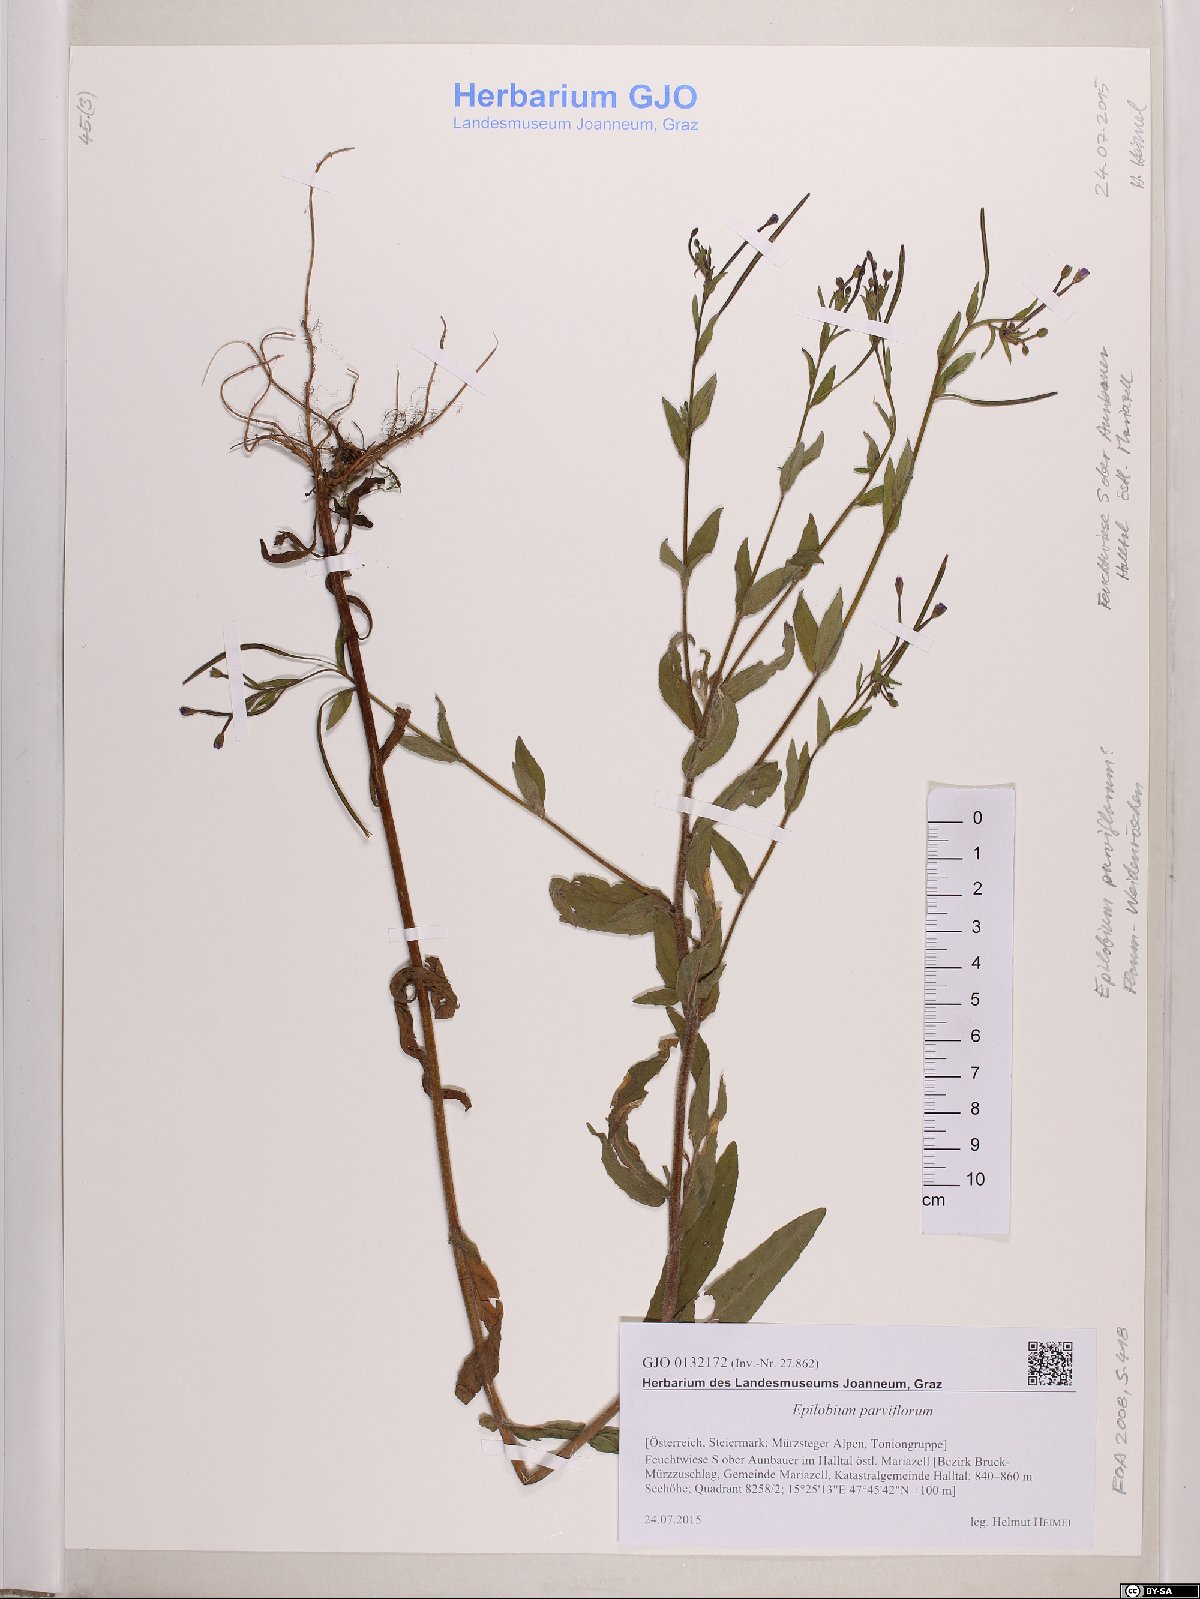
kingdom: Plantae
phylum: Tracheophyta
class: Magnoliopsida
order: Myrtales
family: Onagraceae
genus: Epilobium
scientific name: Epilobium parviflorum
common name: Hoary willowherb
